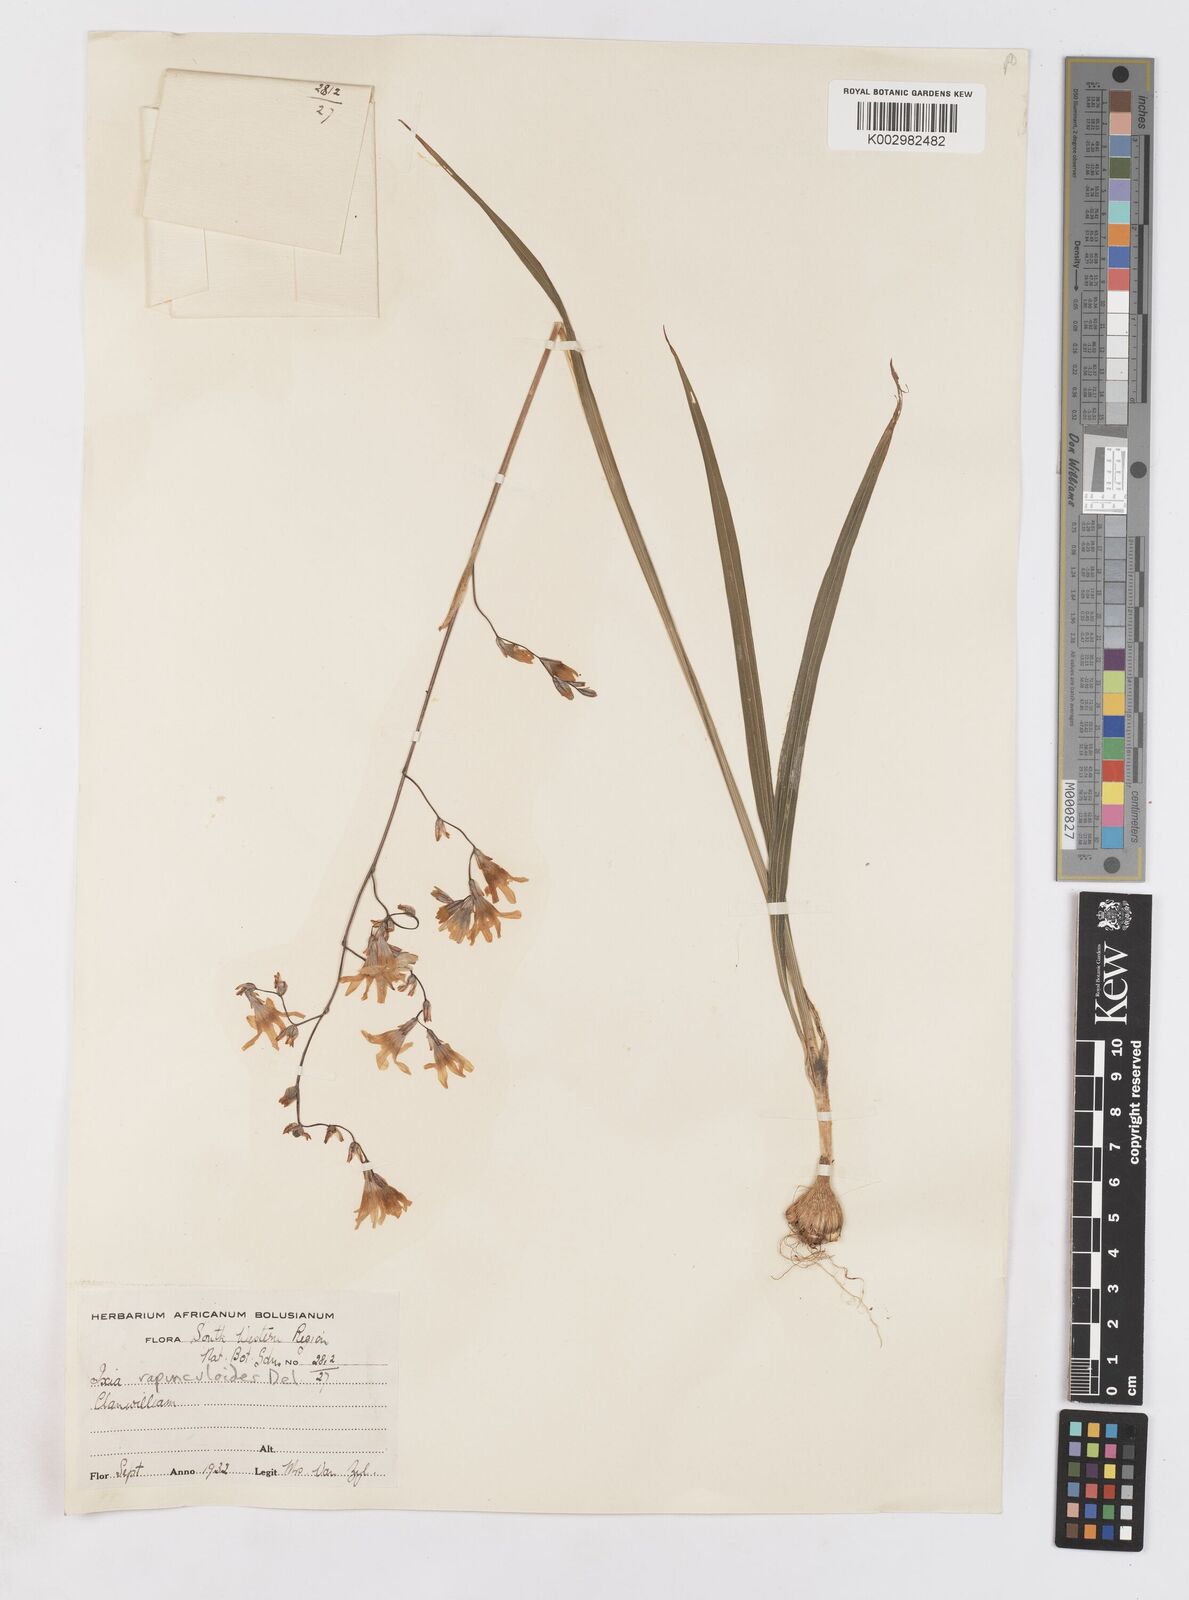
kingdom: Plantae
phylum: Tracheophyta
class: Liliopsida
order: Asparagales
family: Iridaceae
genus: Ixia
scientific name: Ixia rapunculoides
